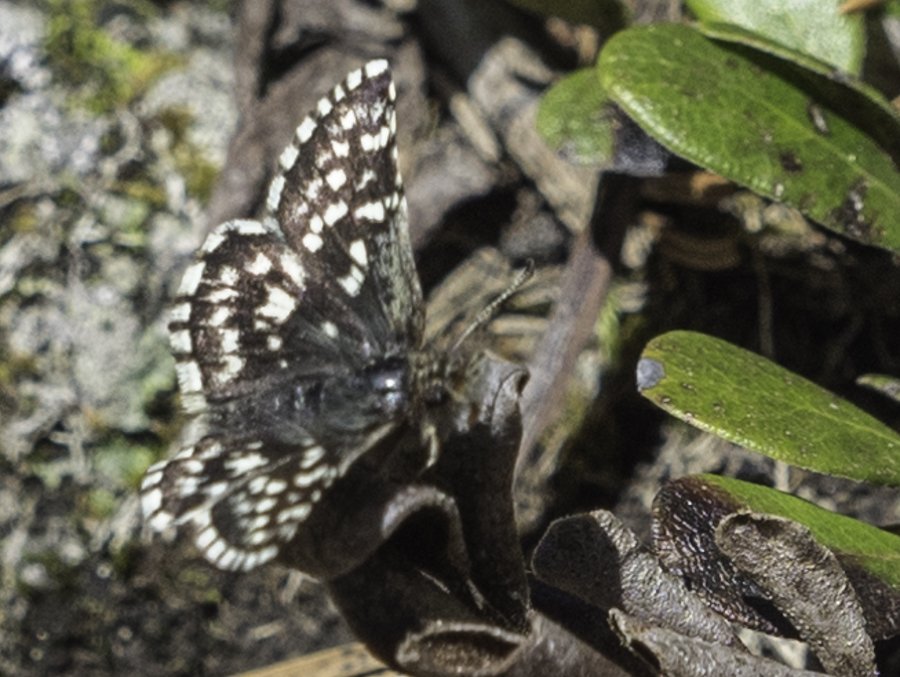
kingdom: Animalia
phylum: Arthropoda
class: Insecta
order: Lepidoptera
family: Hesperiidae
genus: Pyrgus
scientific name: Pyrgus ruralis
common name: Two-banded Checkered-Skipper
